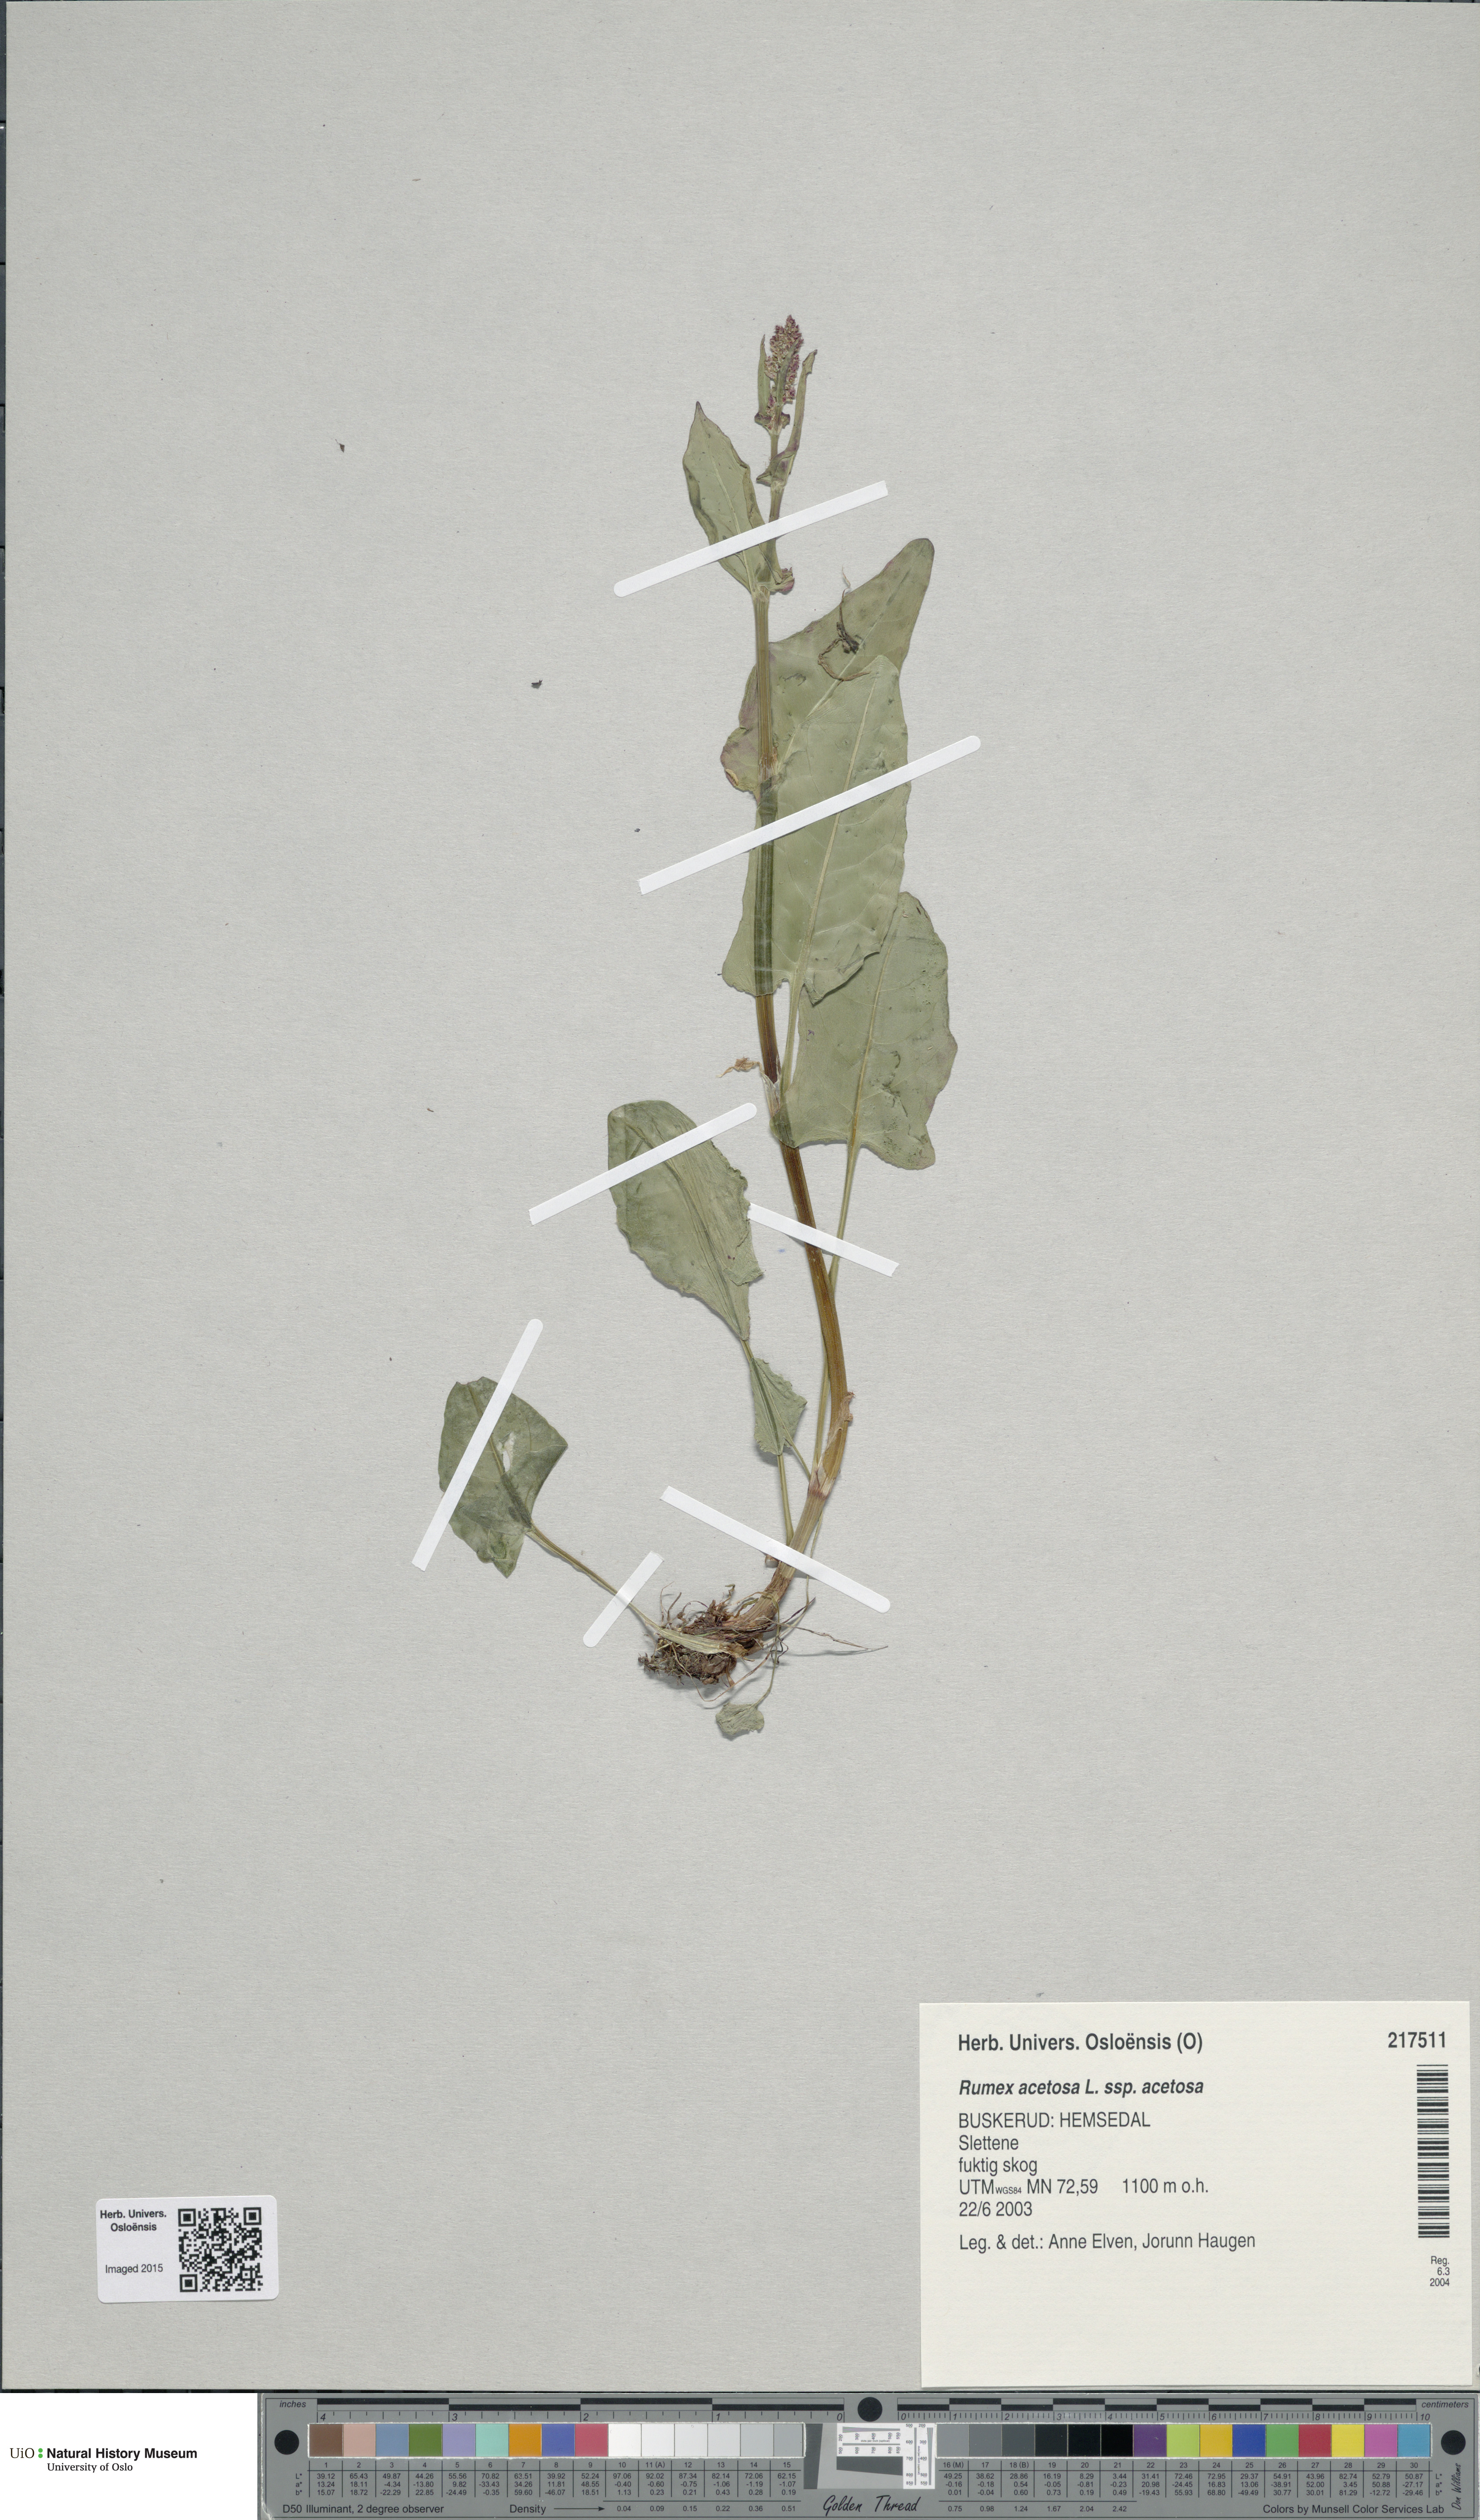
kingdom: Plantae
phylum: Tracheophyta
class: Magnoliopsida
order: Caryophyllales
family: Polygonaceae
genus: Rumex
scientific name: Rumex acetosa
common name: Garden sorrel
